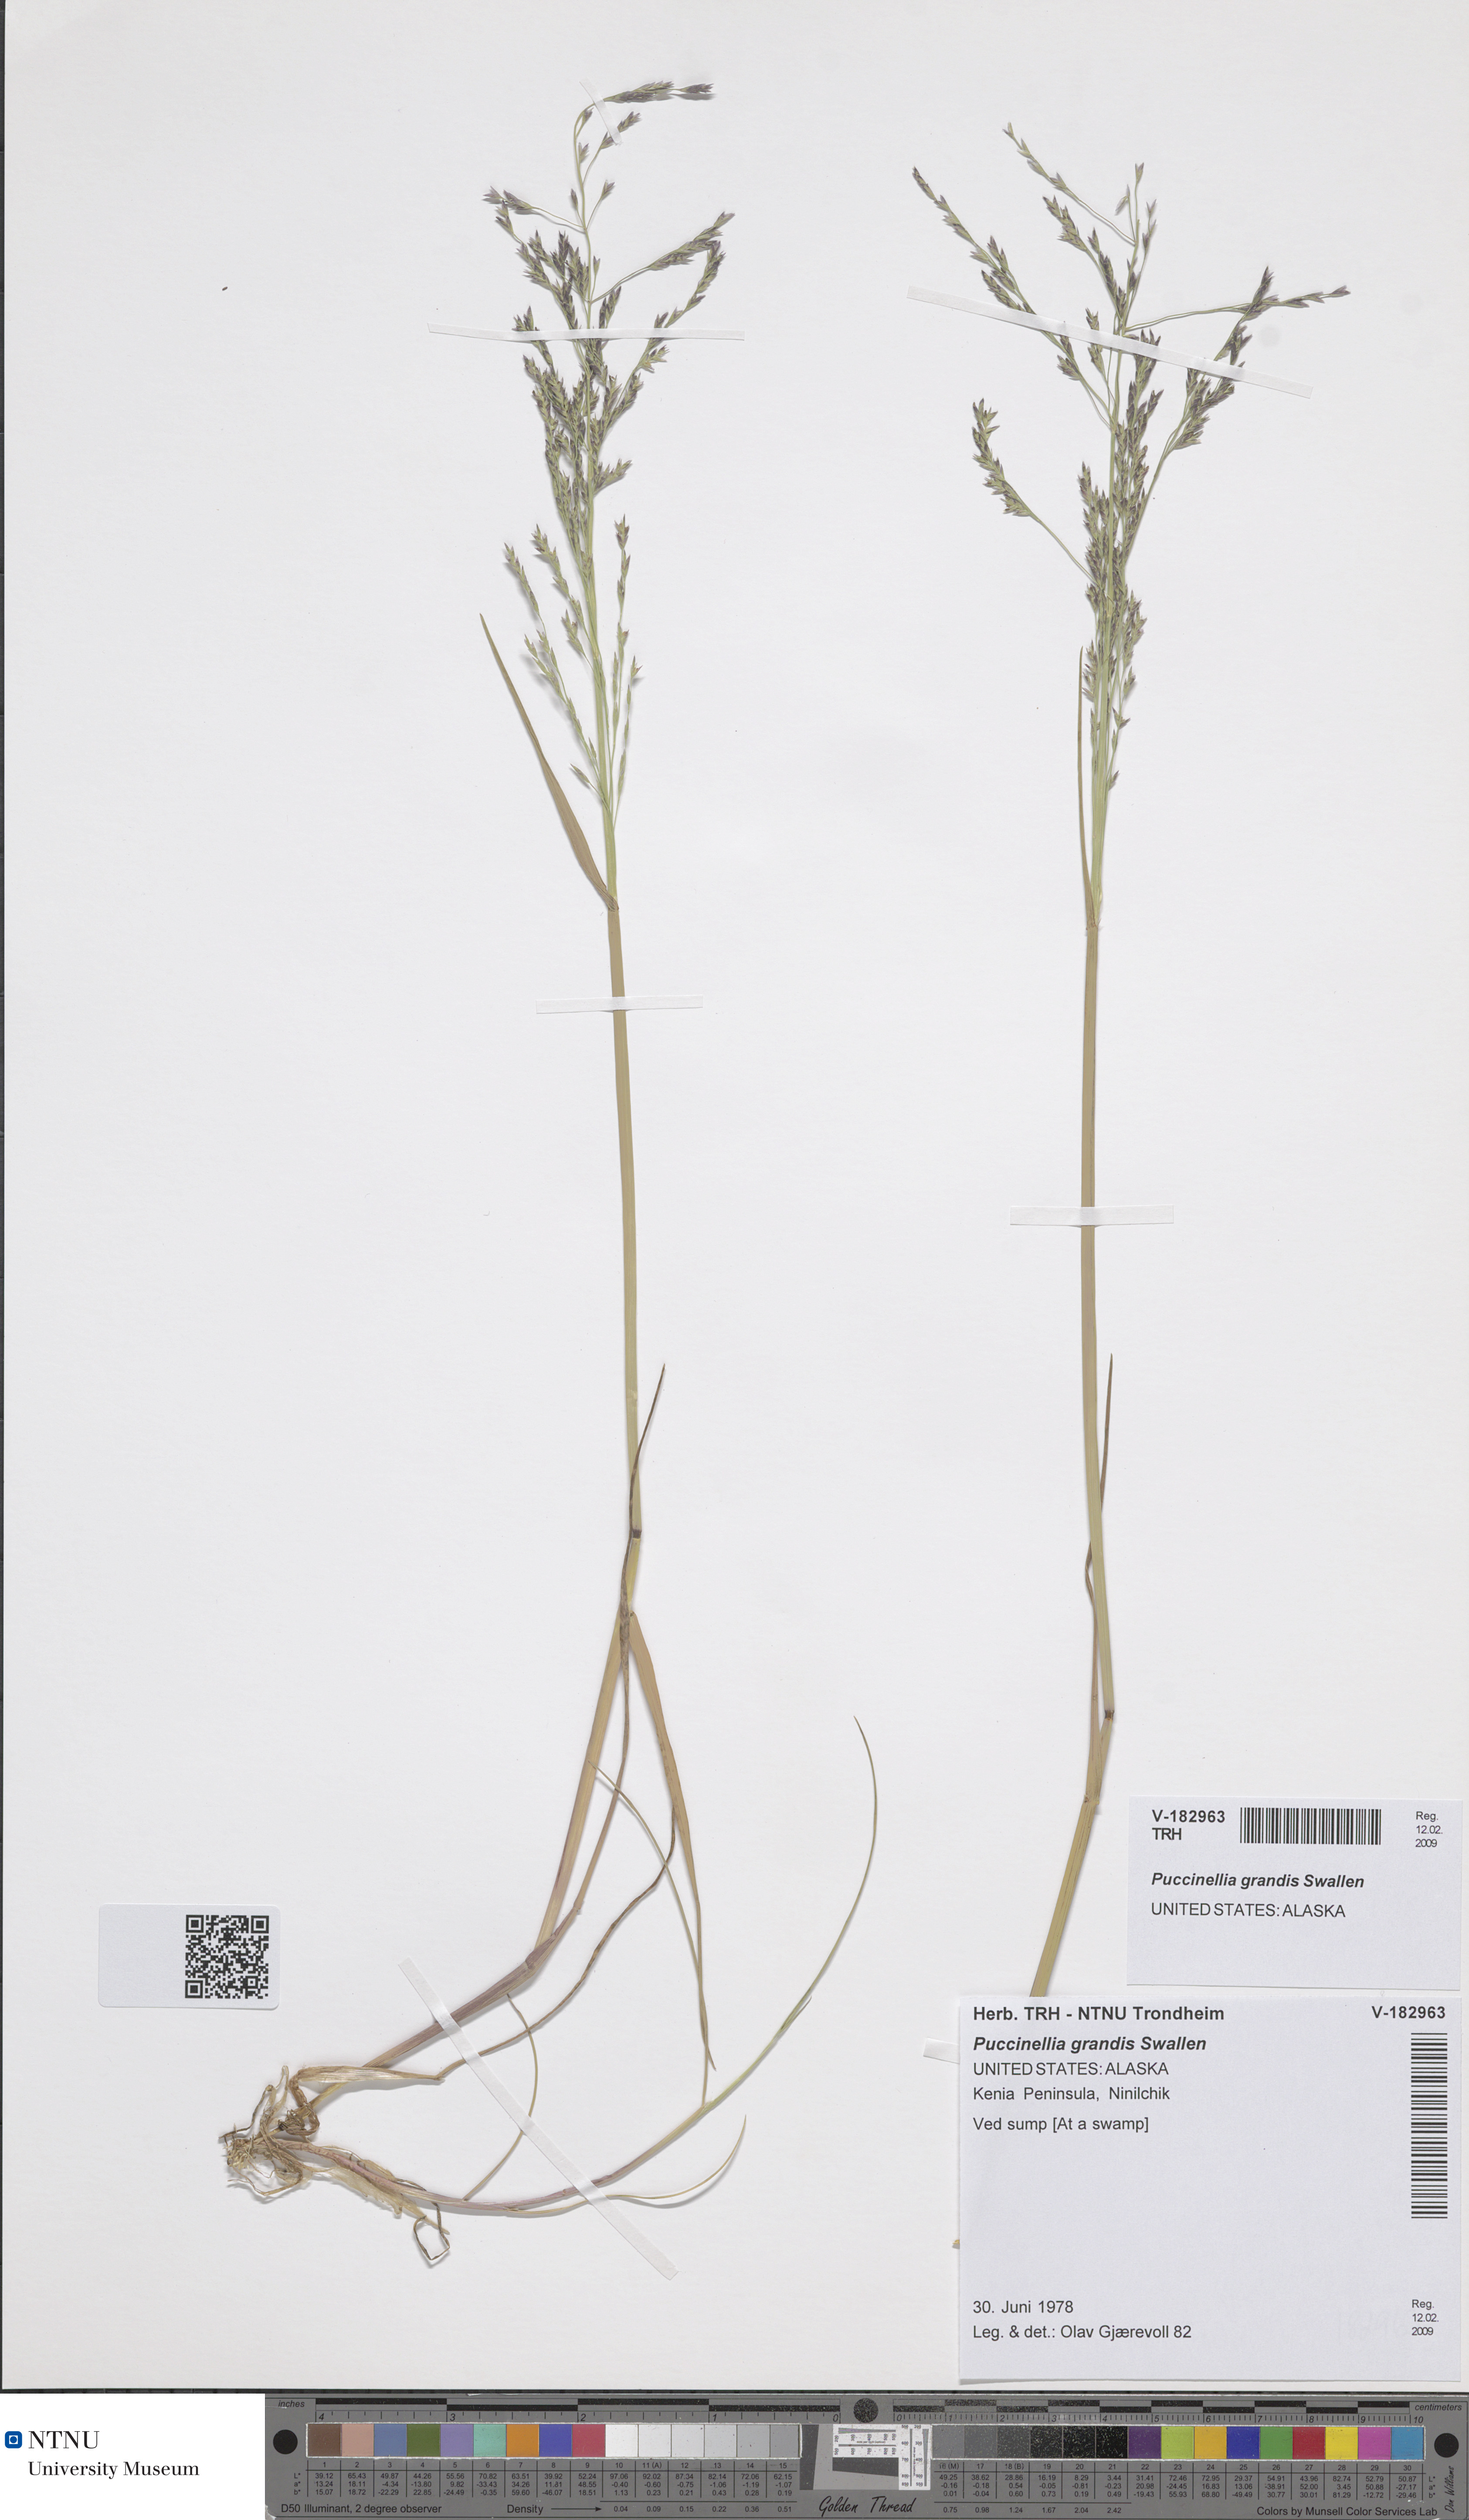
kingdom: Plantae
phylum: Tracheophyta
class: Liliopsida
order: Poales
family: Poaceae
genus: Puccinellia
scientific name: Puccinellia nutkaensis
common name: Nootka alkaligrass
